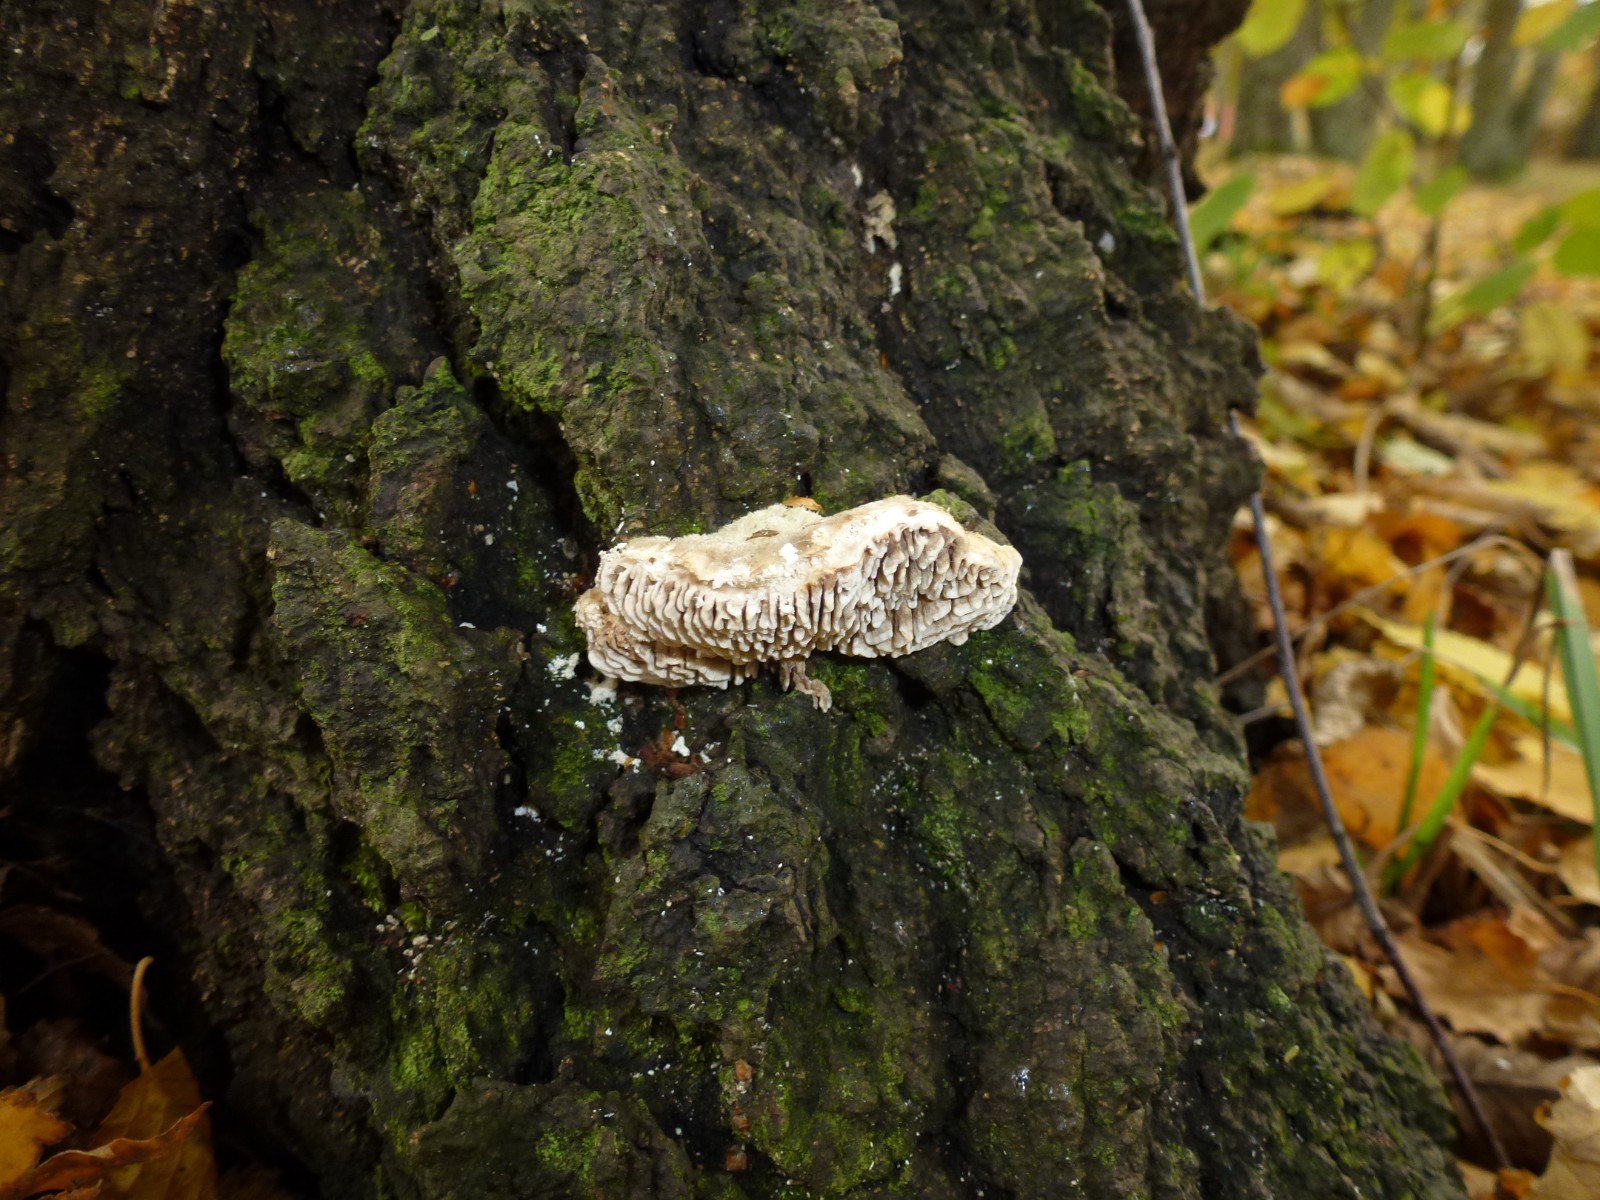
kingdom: Fungi
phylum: Basidiomycota
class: Agaricomycetes
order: Polyporales
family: Polyporaceae
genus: Lenzites
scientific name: Lenzites betulinus
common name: birke-læderporesvamp
